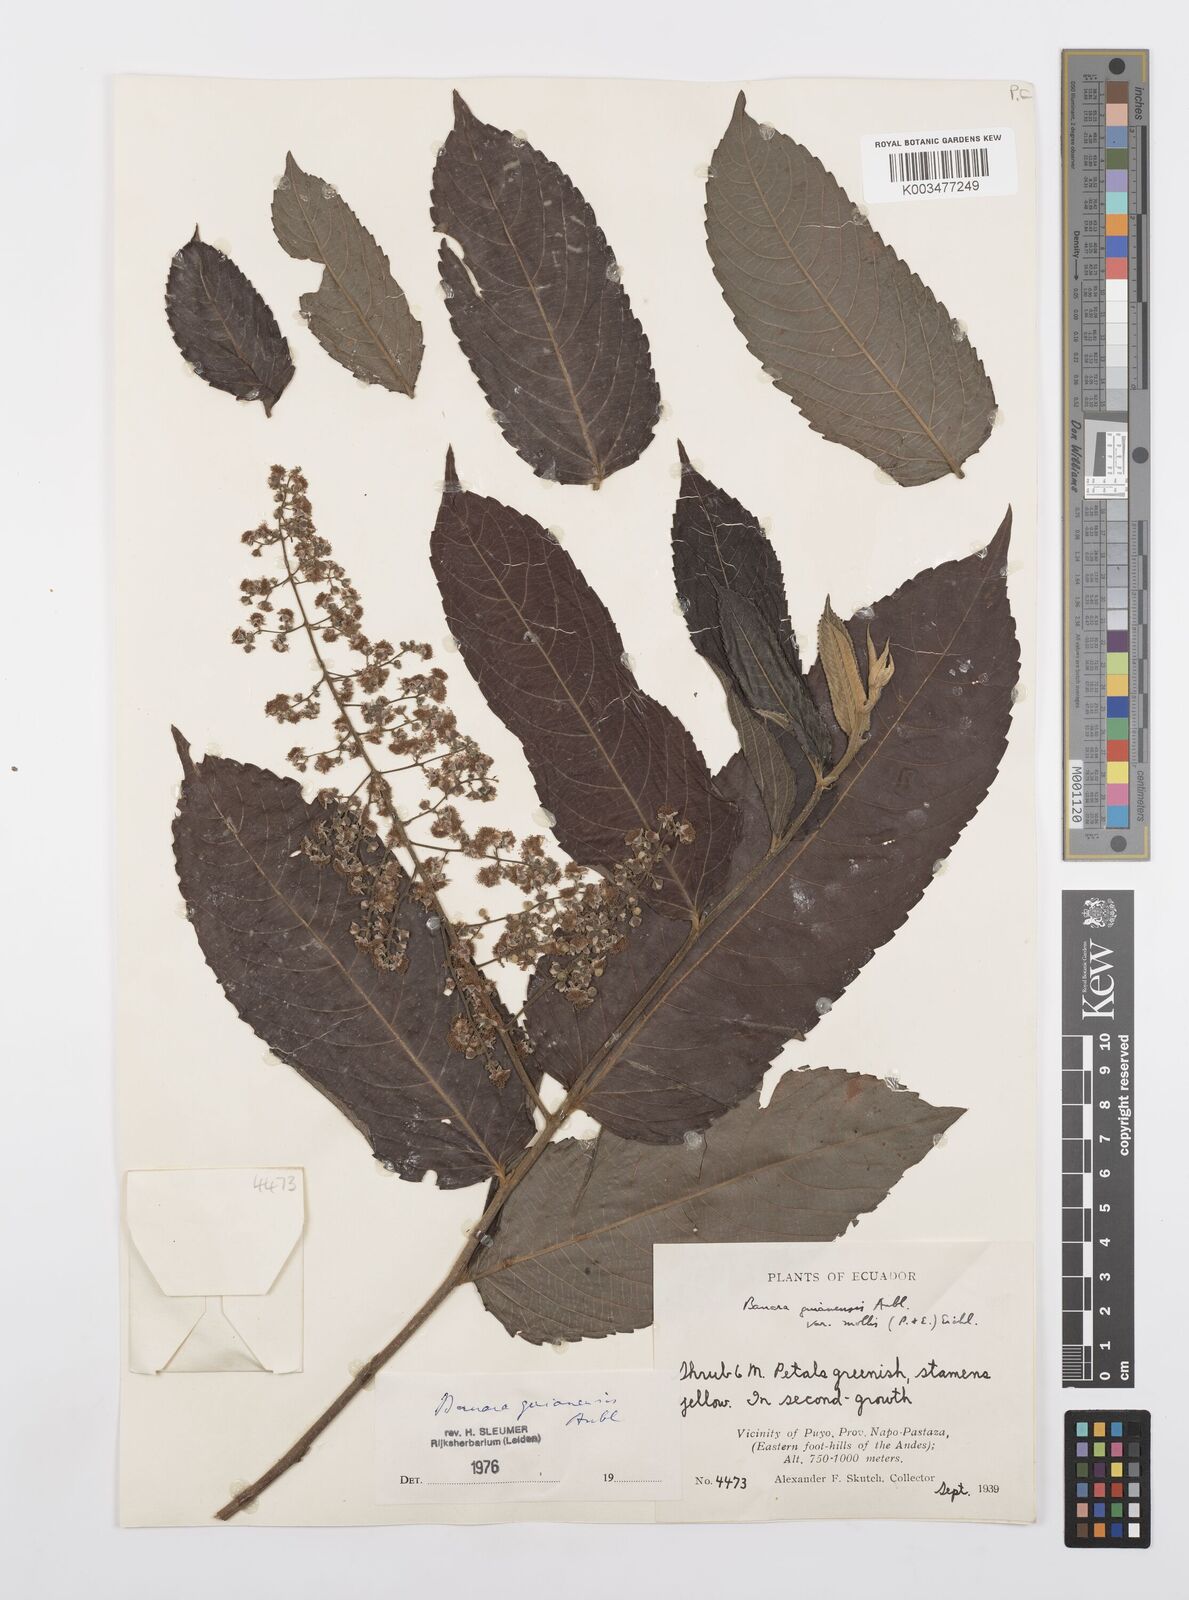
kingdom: Plantae
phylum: Tracheophyta
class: Magnoliopsida
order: Malpighiales
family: Salicaceae
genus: Banara
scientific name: Banara guianensis
